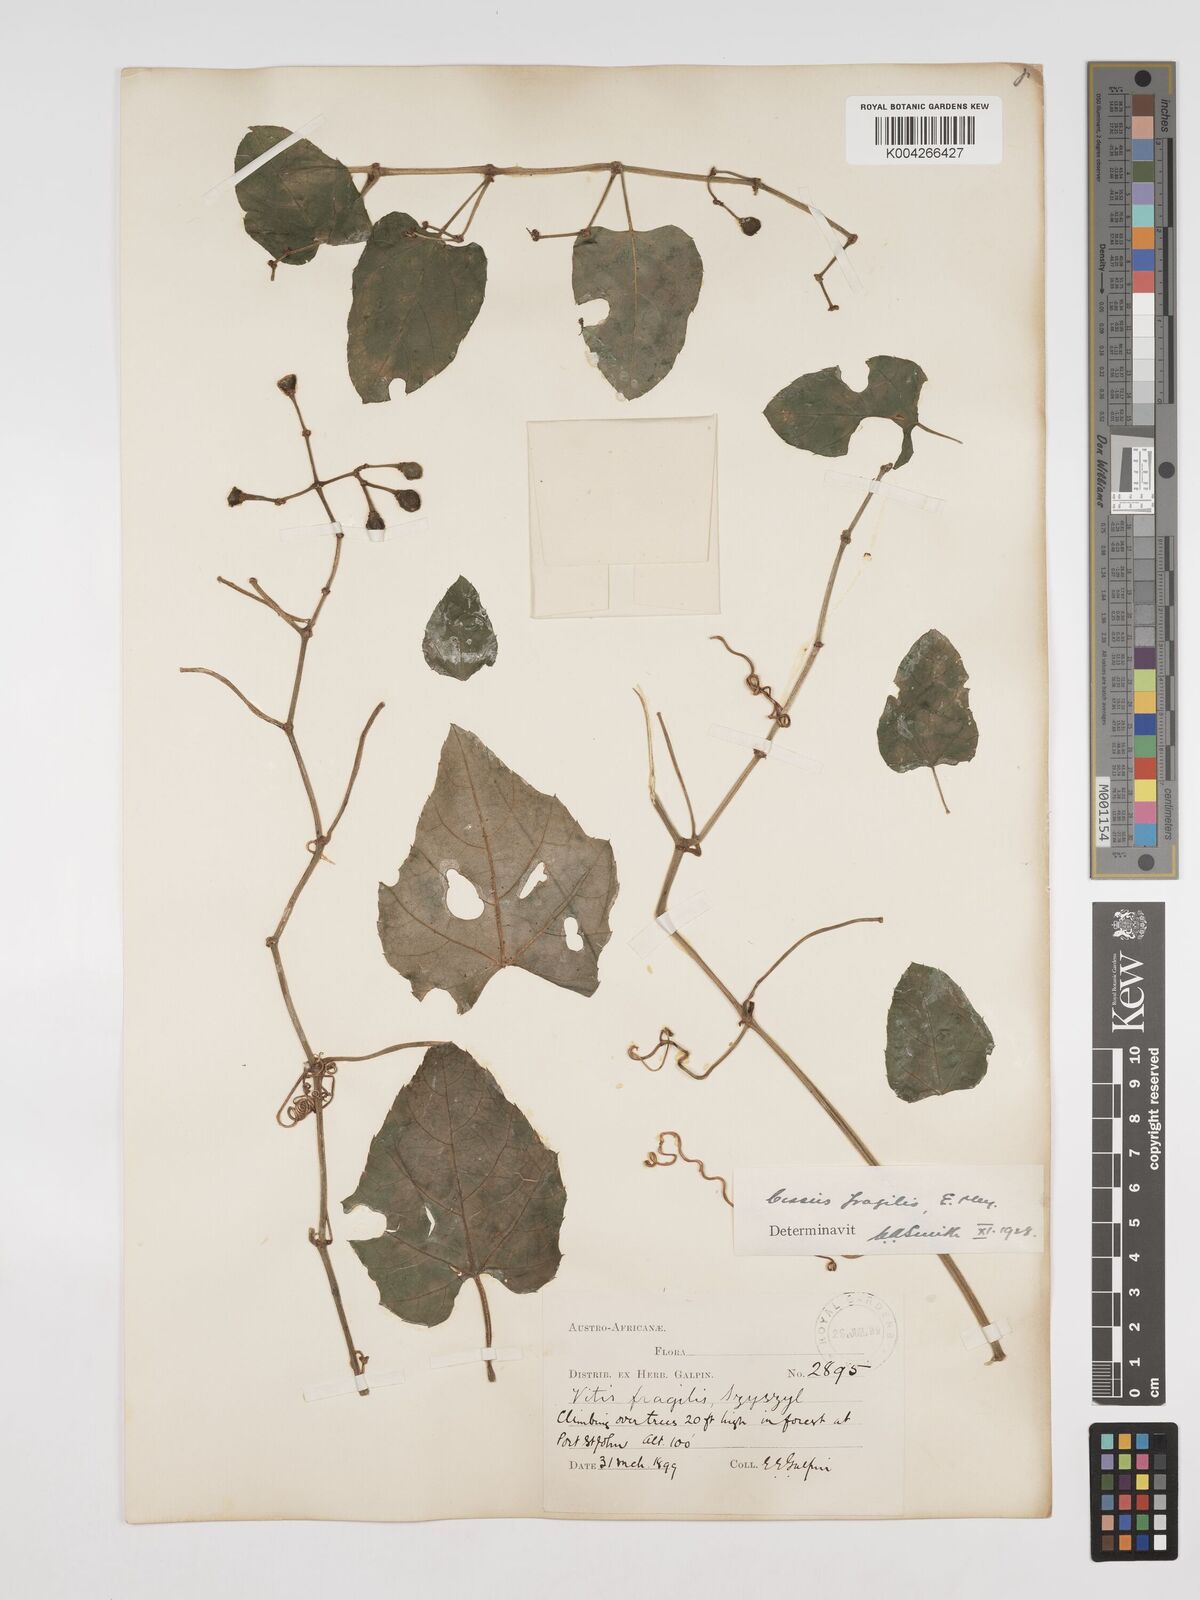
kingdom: Plantae
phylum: Tracheophyta
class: Magnoliopsida
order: Vitales
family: Vitaceae
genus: Cissus
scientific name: Cissus fragilis
